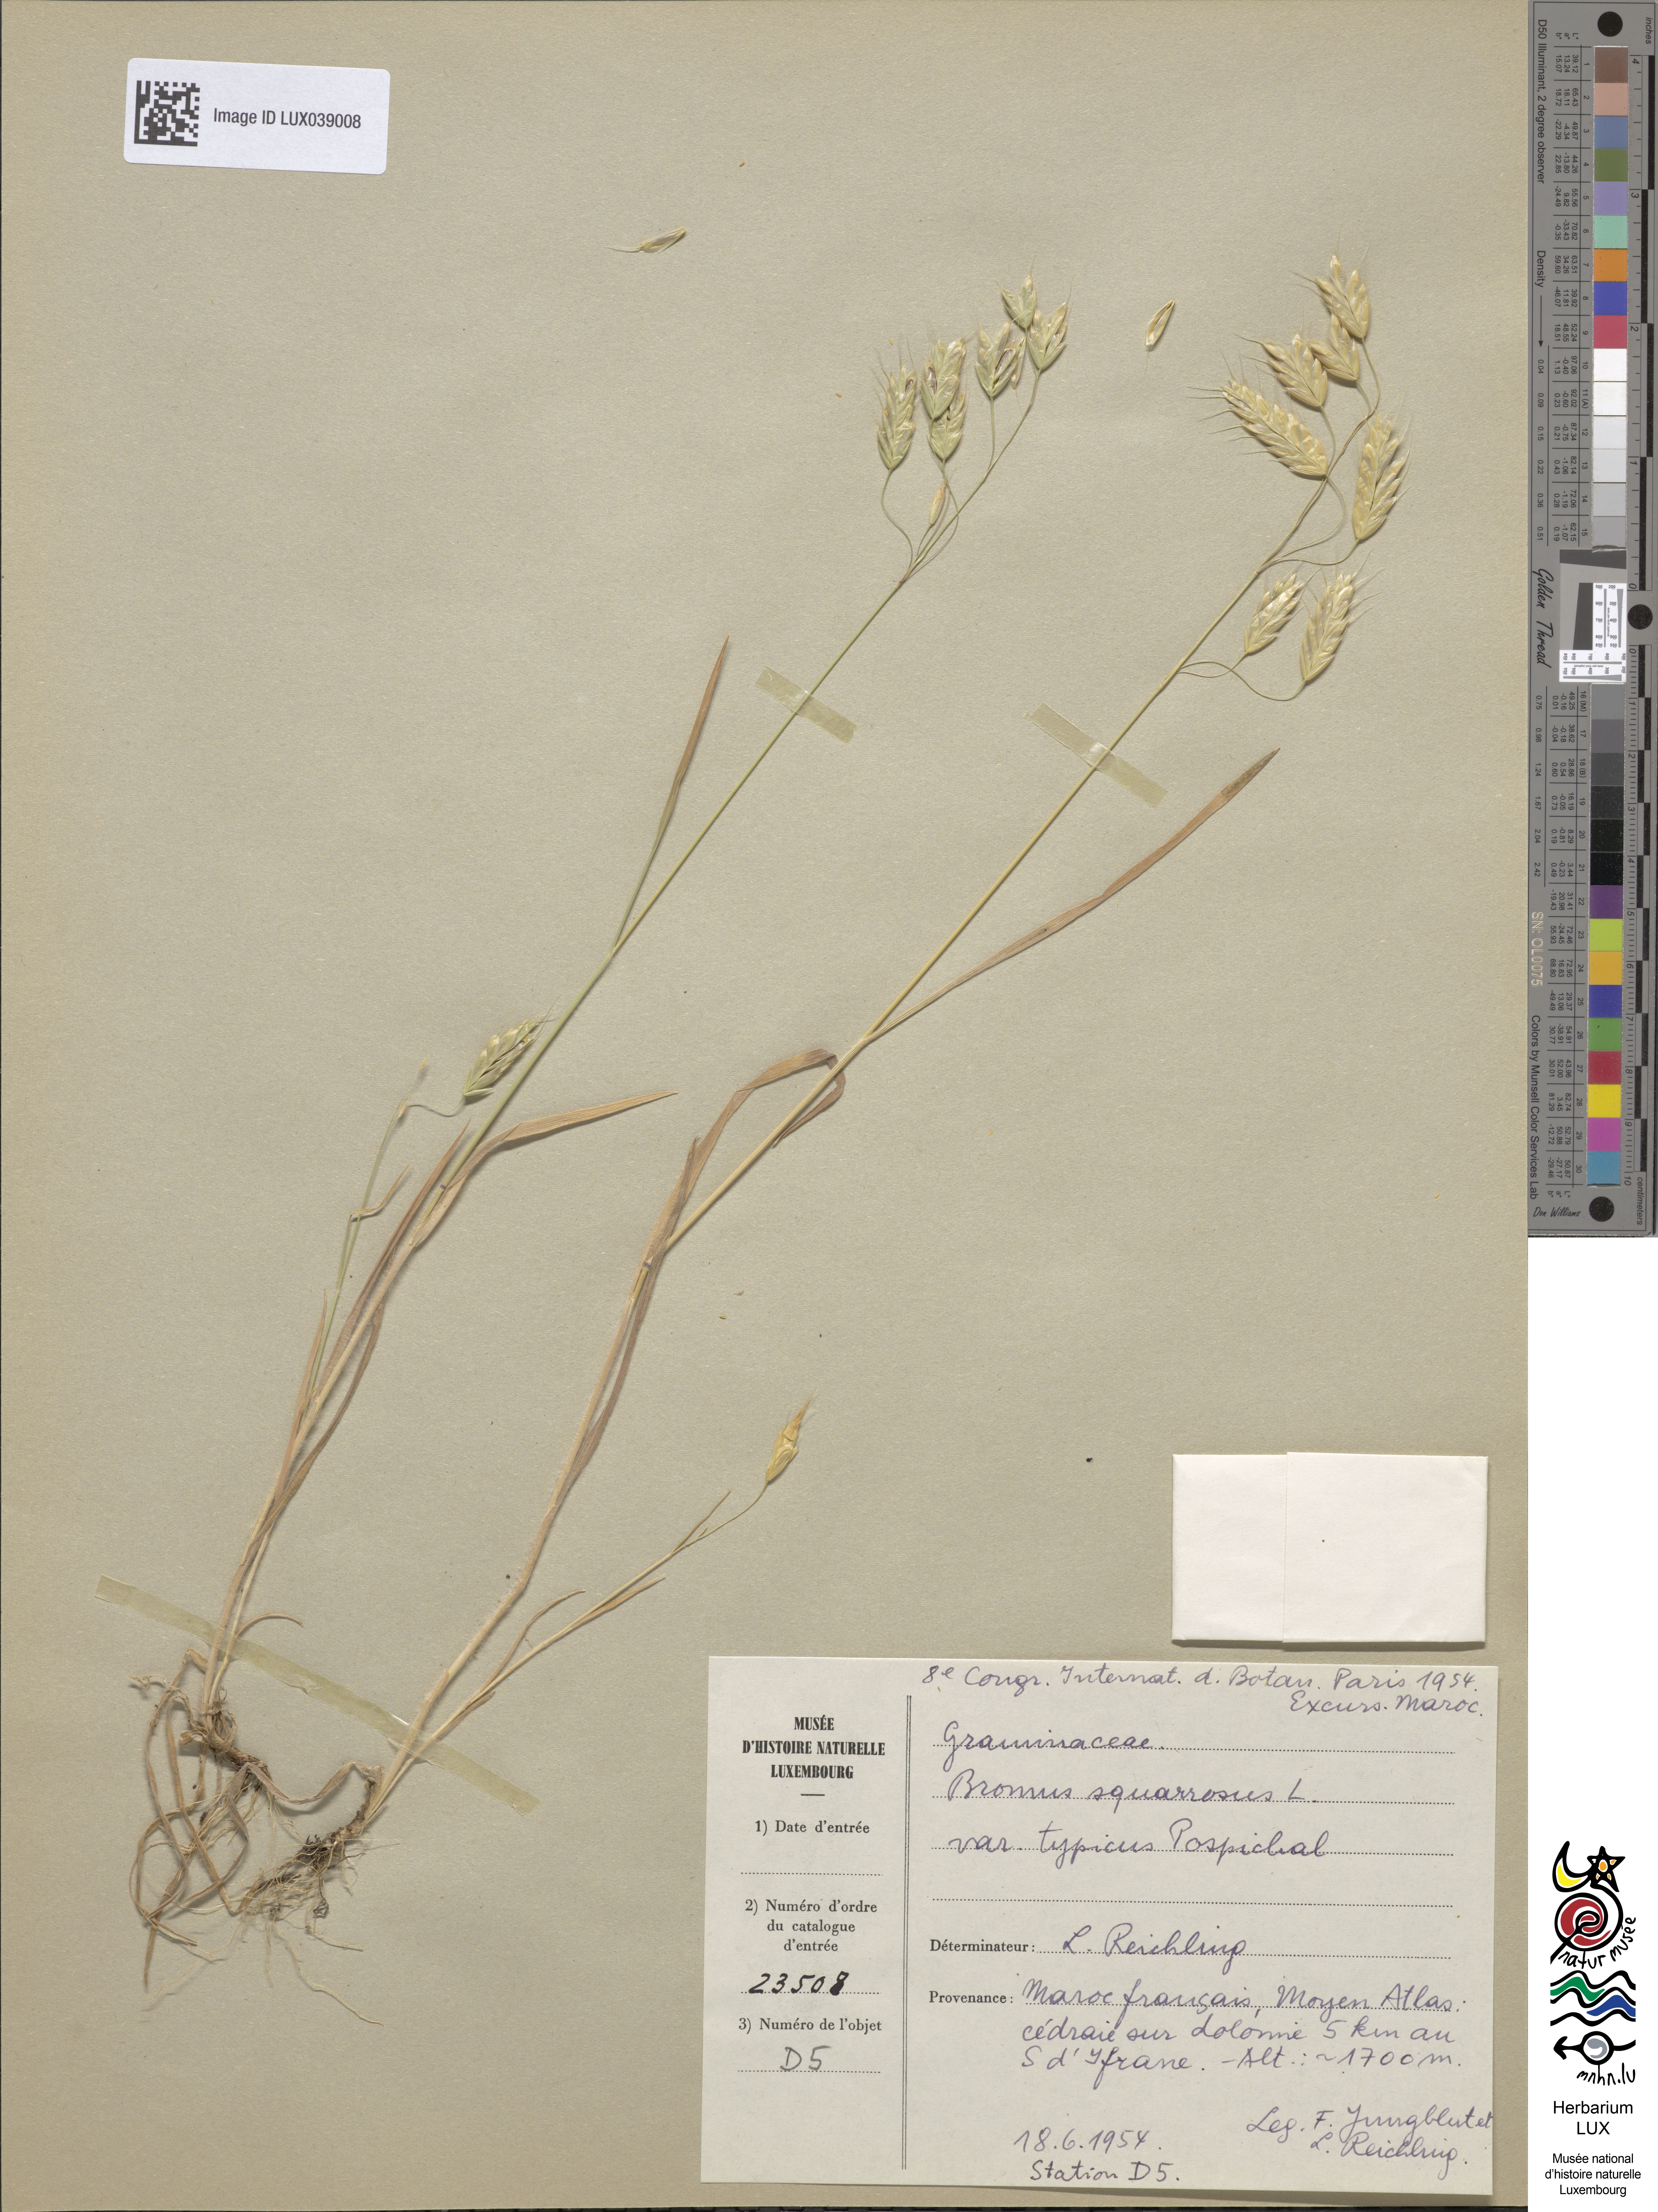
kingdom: Plantae
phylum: Tracheophyta
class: Liliopsida
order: Poales
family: Poaceae
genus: Bromus
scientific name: Bromus squarrosus
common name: Corn brome
